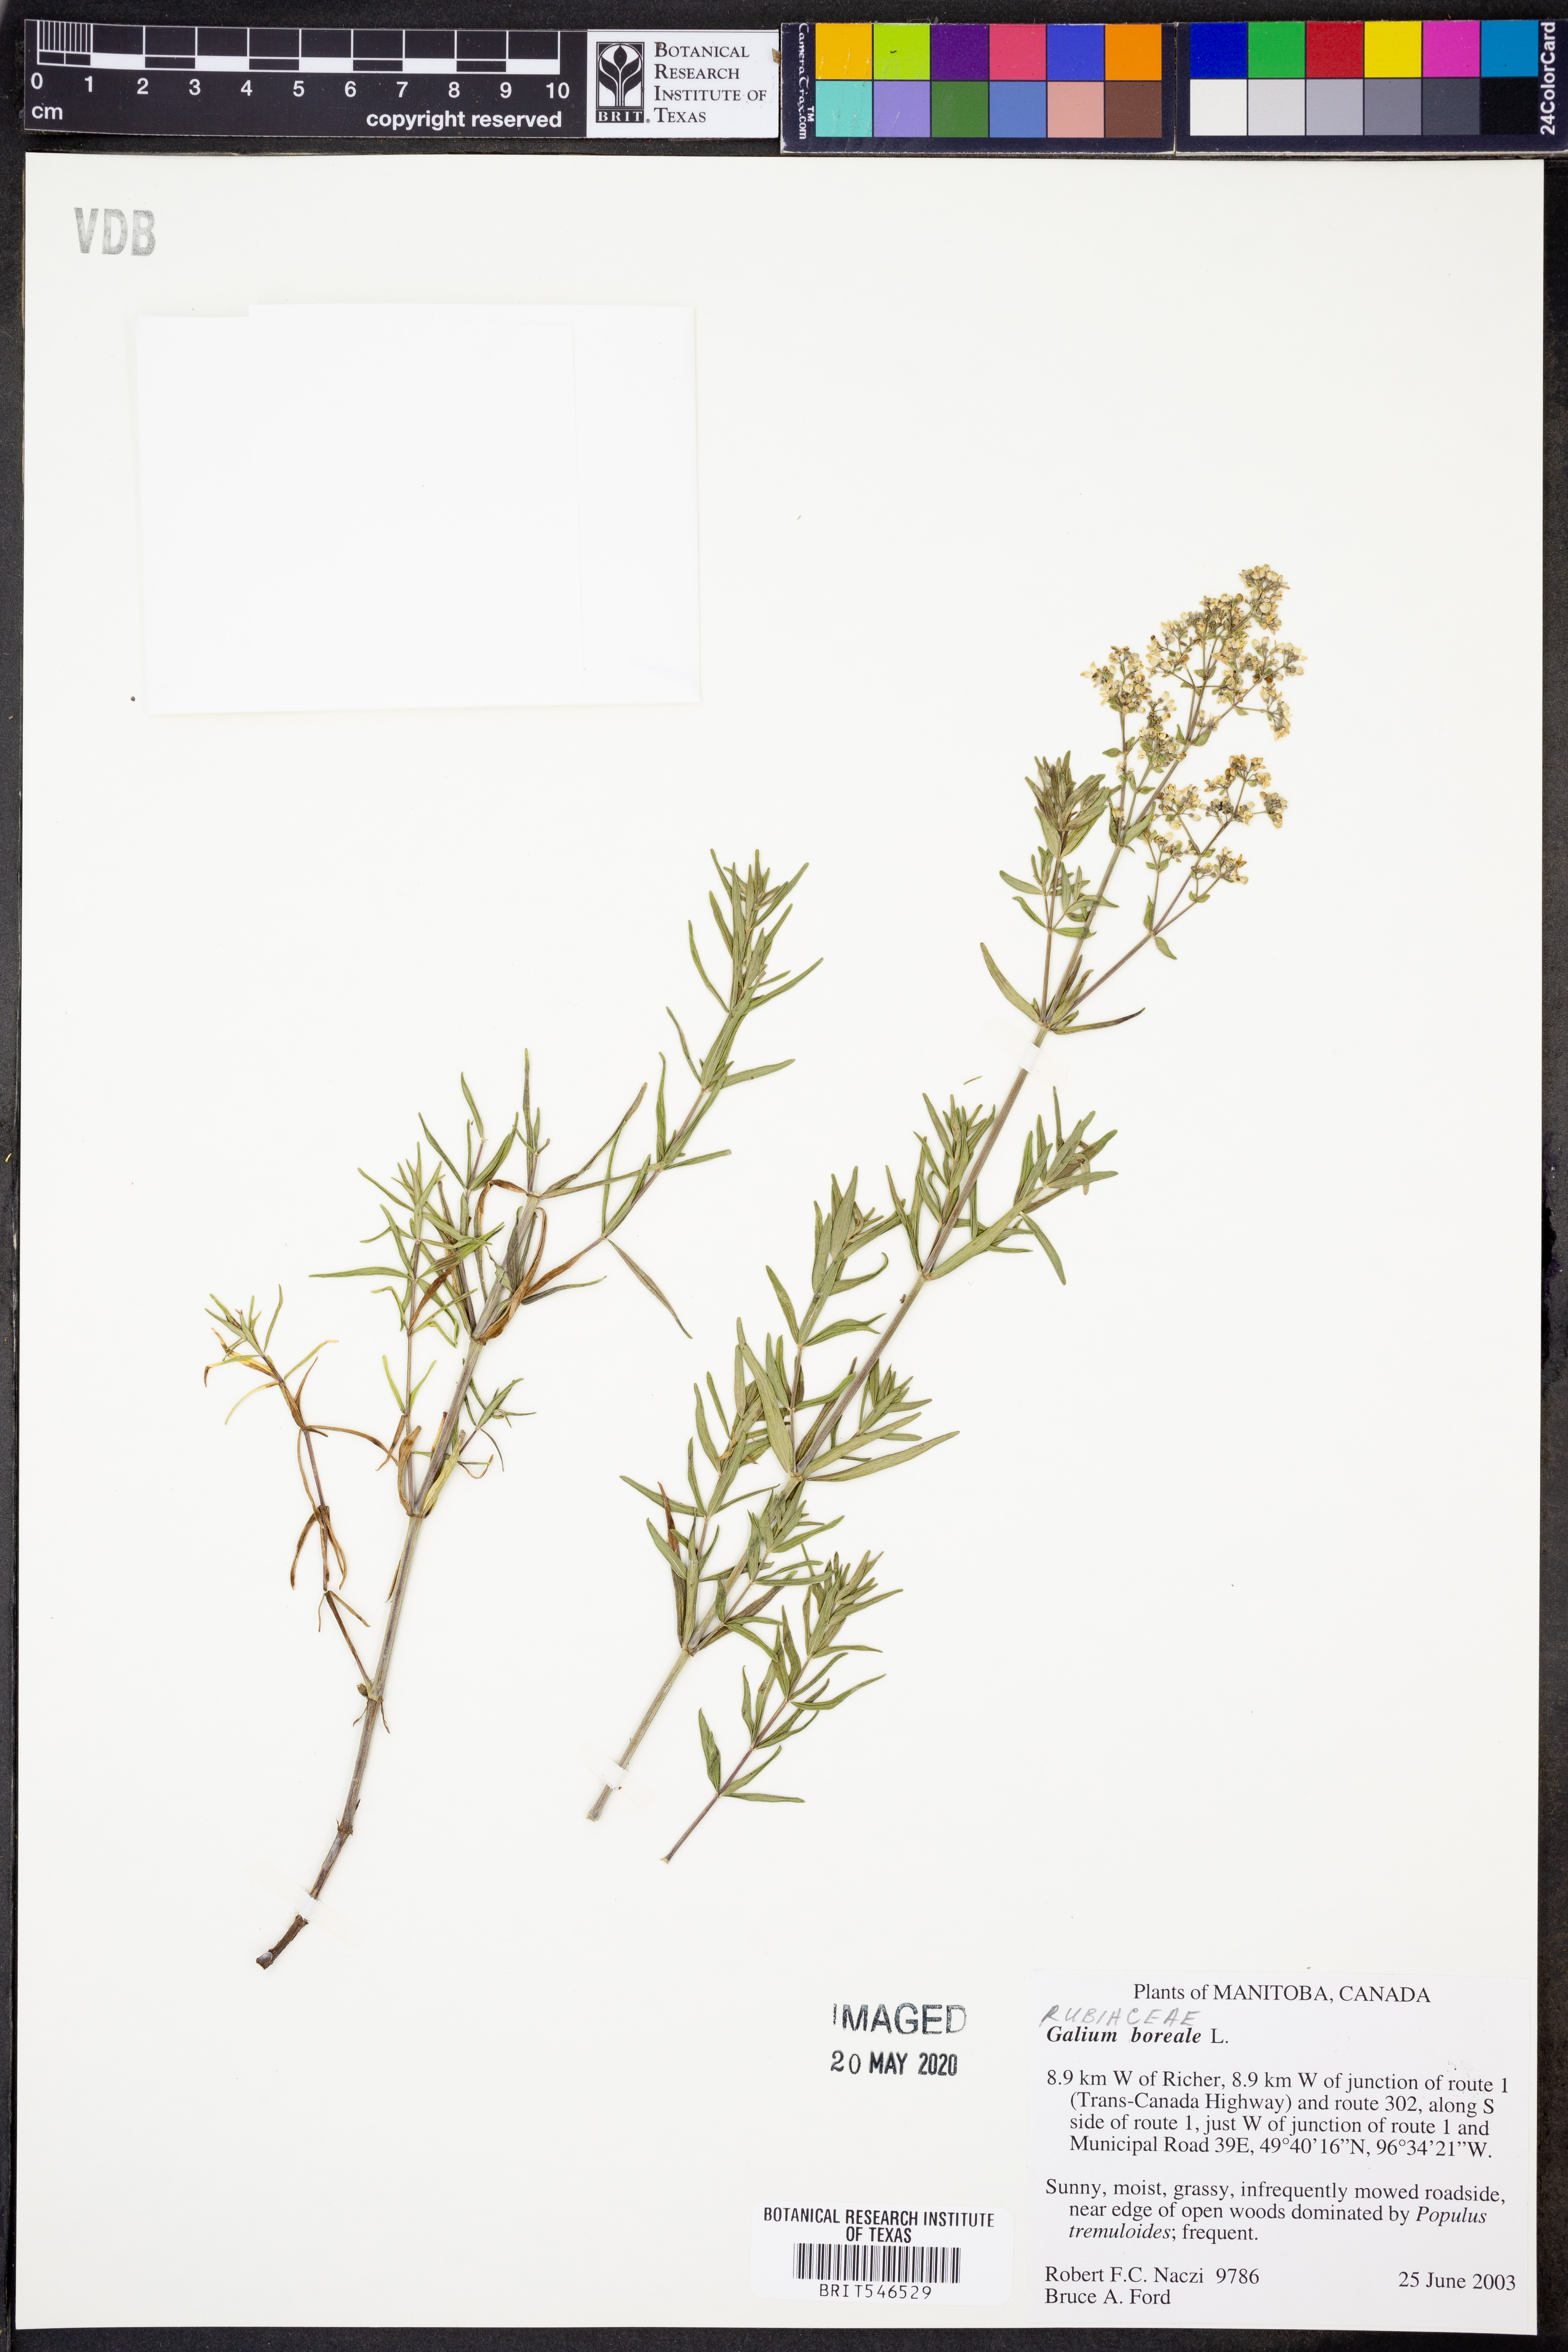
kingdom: Plantae
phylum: Tracheophyta
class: Magnoliopsida
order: Gentianales
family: Rubiaceae
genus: Galium
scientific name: Galium boreale
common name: Northern bedstraw
